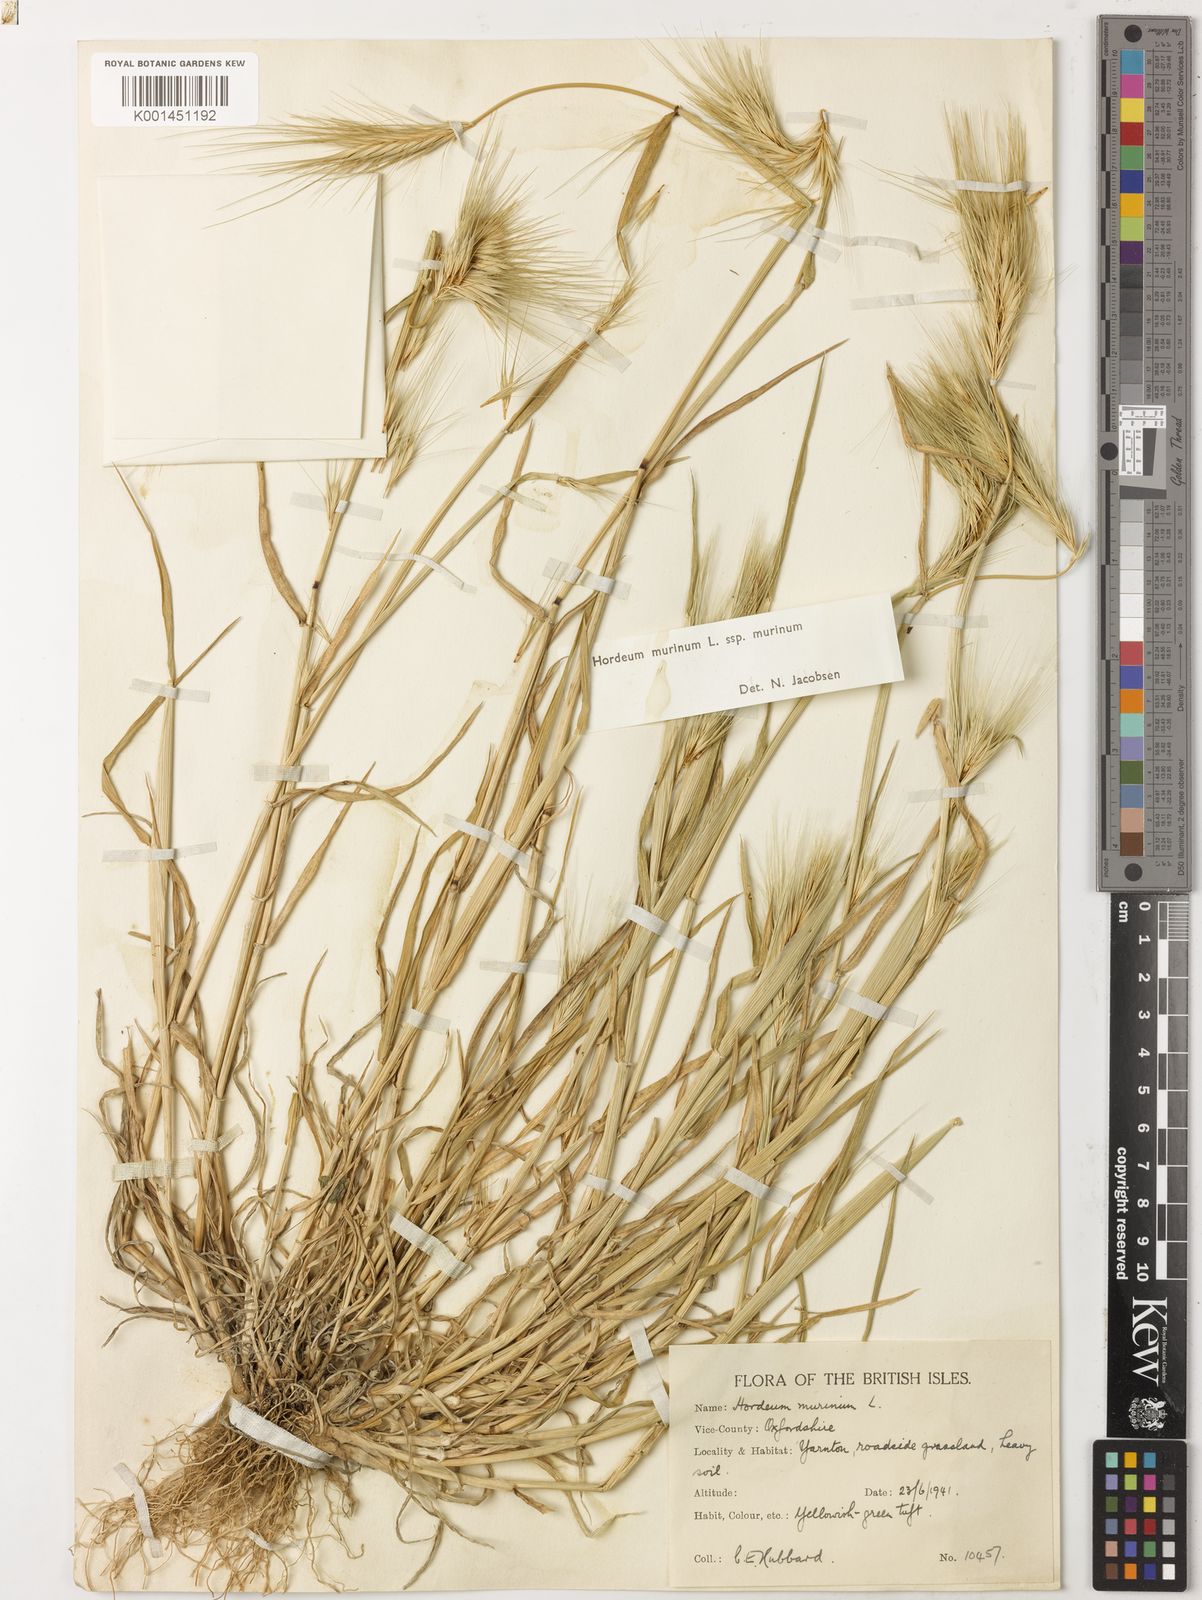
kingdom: Plantae
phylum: Tracheophyta
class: Liliopsida
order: Poales
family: Poaceae
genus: Hordeum
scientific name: Hordeum murinum
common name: Wall barley
